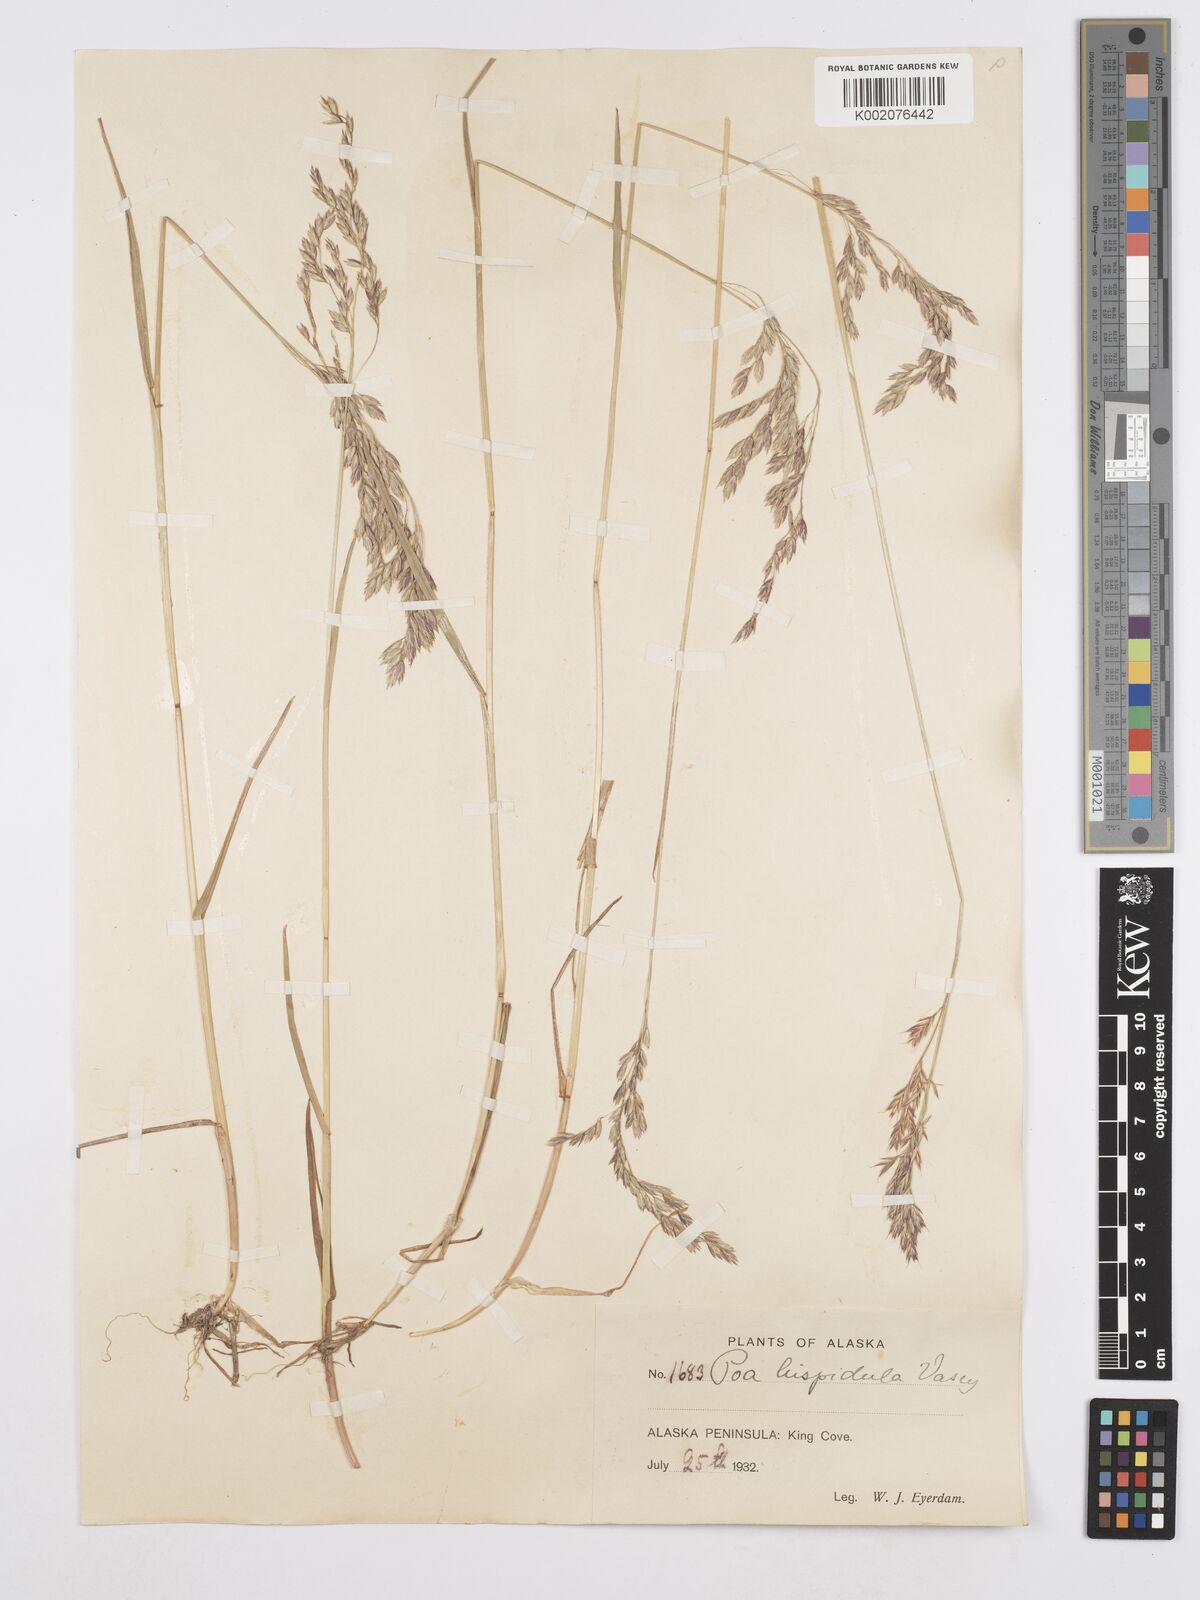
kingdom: Plantae
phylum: Tracheophyta
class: Liliopsida
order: Poales
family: Poaceae
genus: Poa
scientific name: Poa macrocalyx
